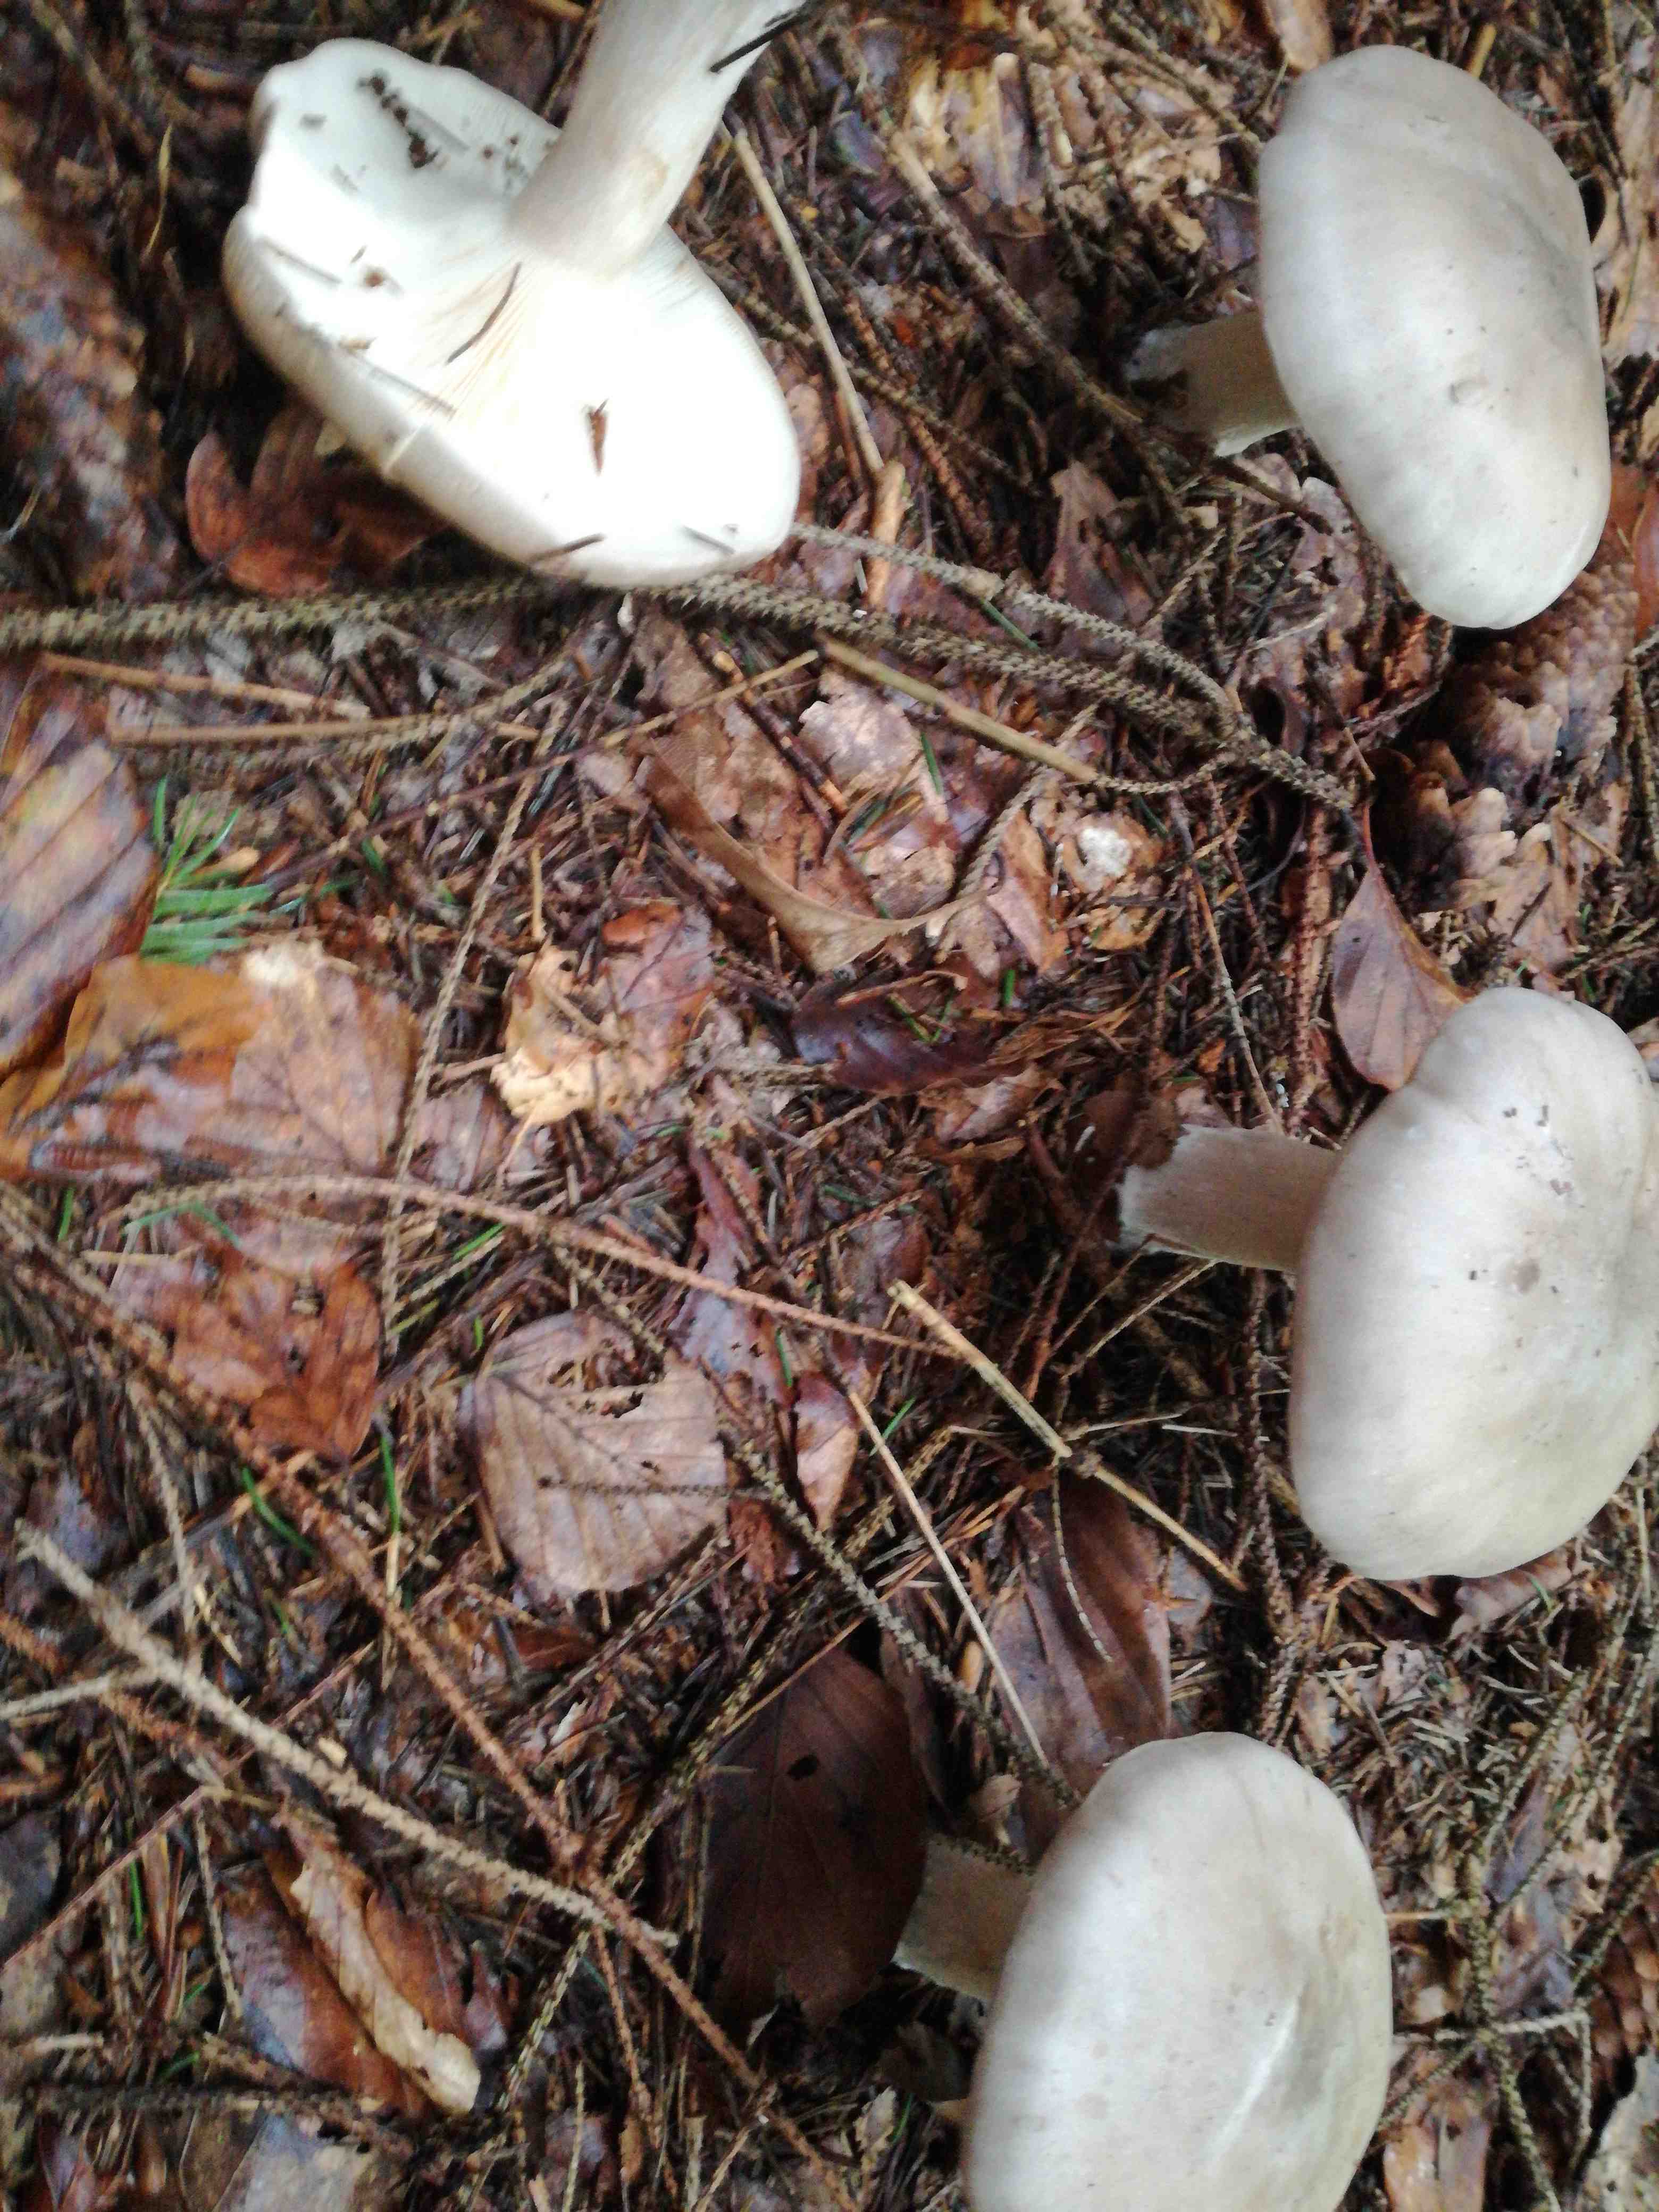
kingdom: Fungi
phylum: Basidiomycota
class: Agaricomycetes
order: Agaricales
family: Tricholomataceae
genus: Clitocybe
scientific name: Clitocybe nebularis
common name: tåge-tragthat
